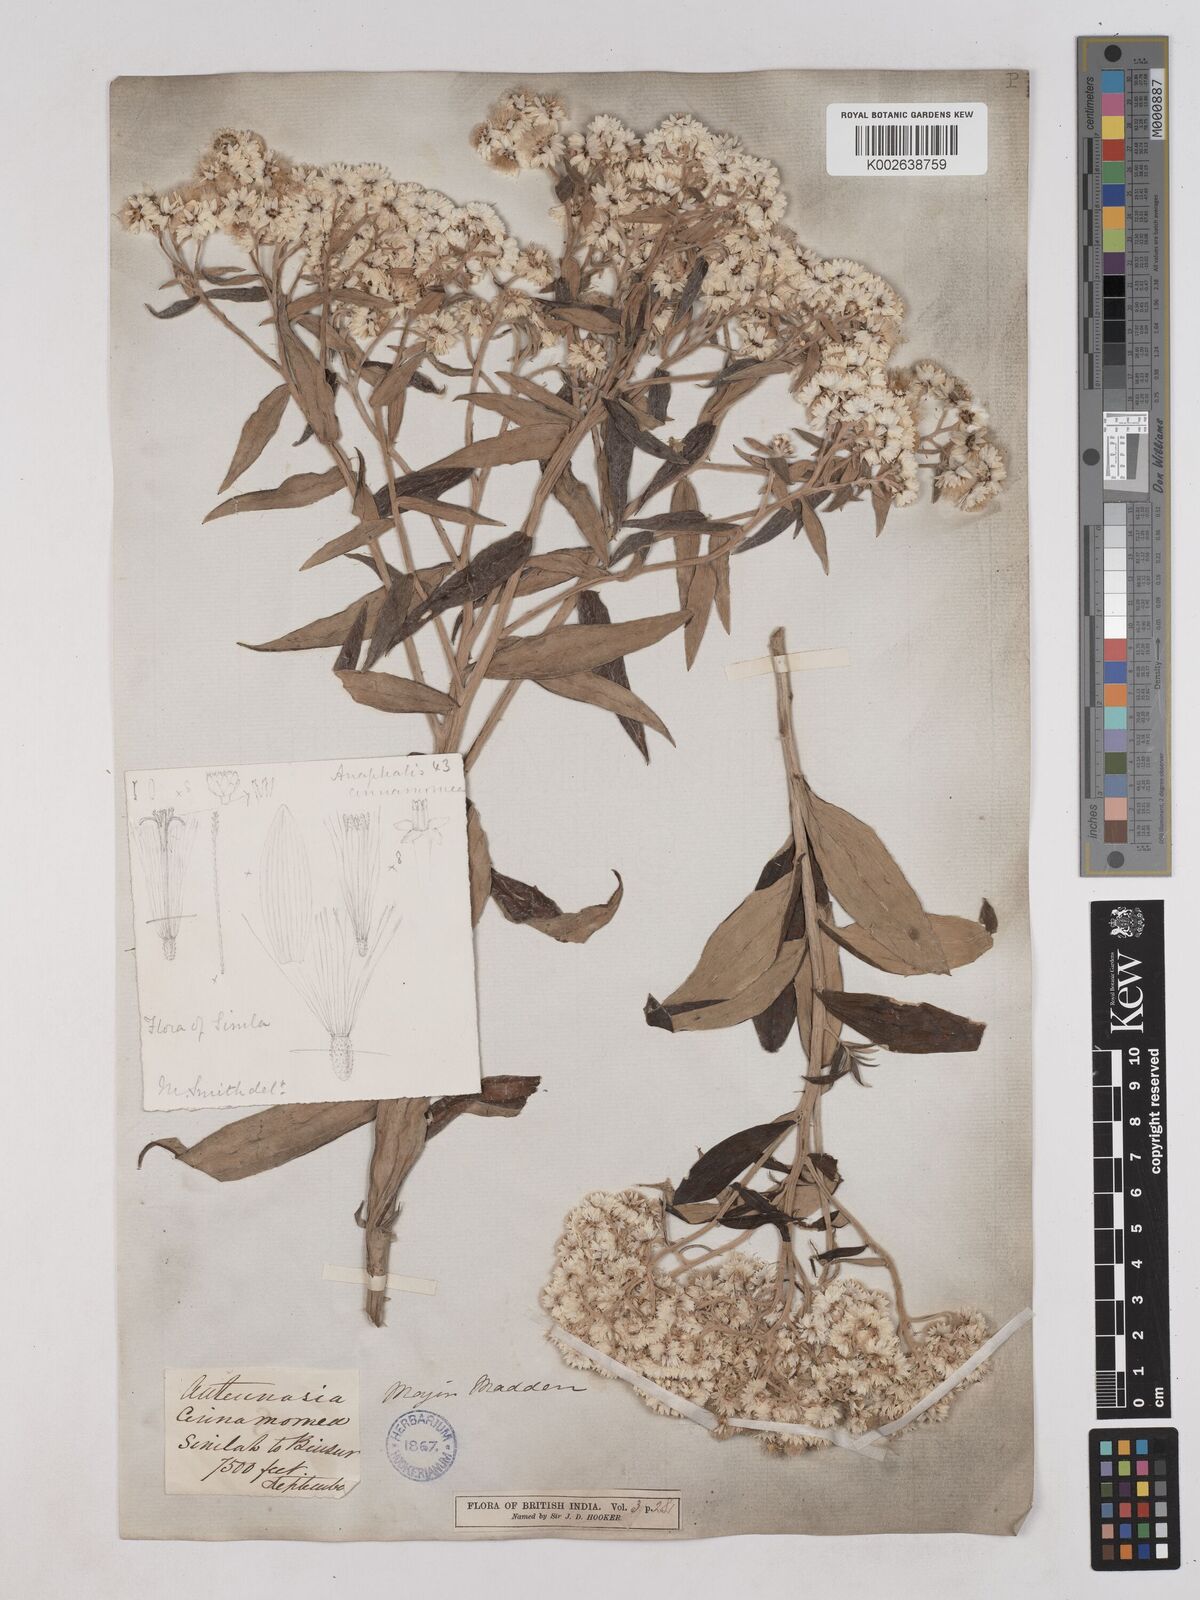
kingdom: Plantae
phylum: Tracheophyta
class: Magnoliopsida
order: Asterales
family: Asteraceae
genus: Anaphalis
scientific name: Anaphalis marcescens
